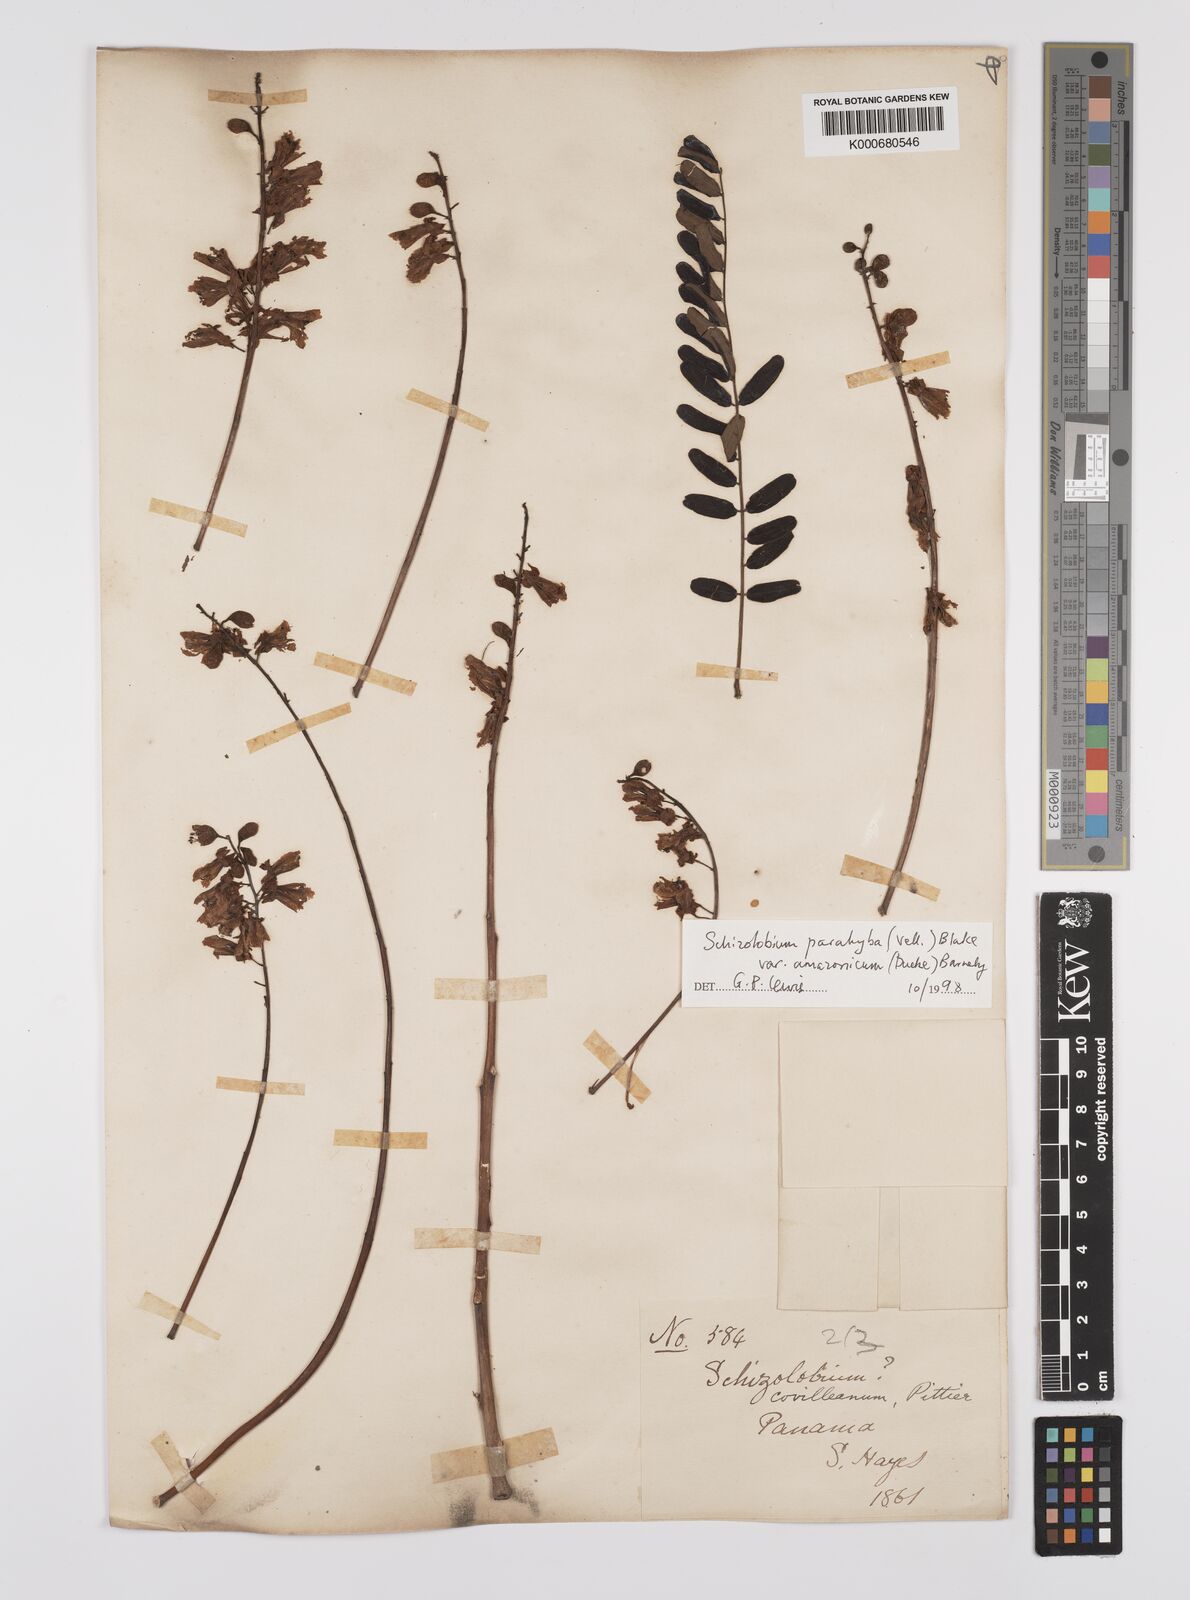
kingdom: Plantae
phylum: Tracheophyta
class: Magnoliopsida
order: Fabales
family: Fabaceae
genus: Schizolobium
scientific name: Schizolobium parahyba
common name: Brazilian firetree
